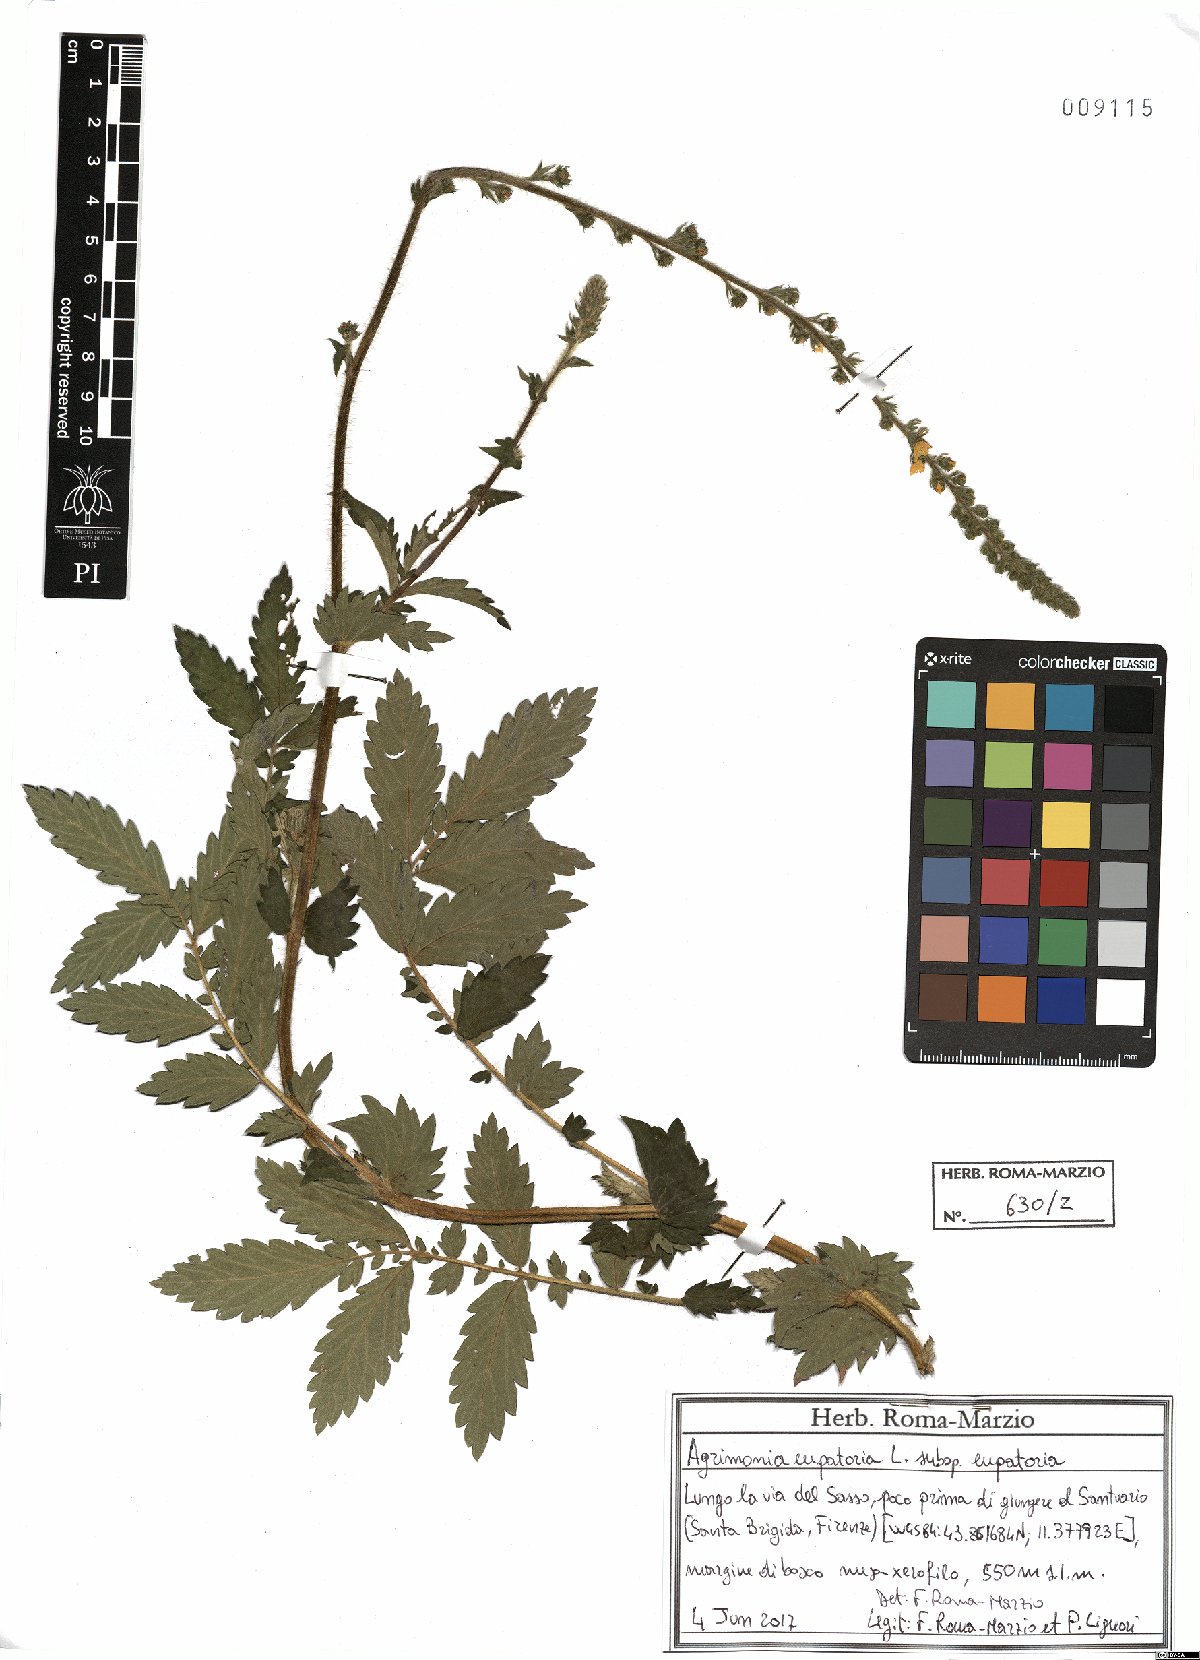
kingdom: Plantae
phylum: Tracheophyta
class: Magnoliopsida
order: Rosales
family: Rosaceae
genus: Agrimonia
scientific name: Agrimonia eupatoria
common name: Agrimony
